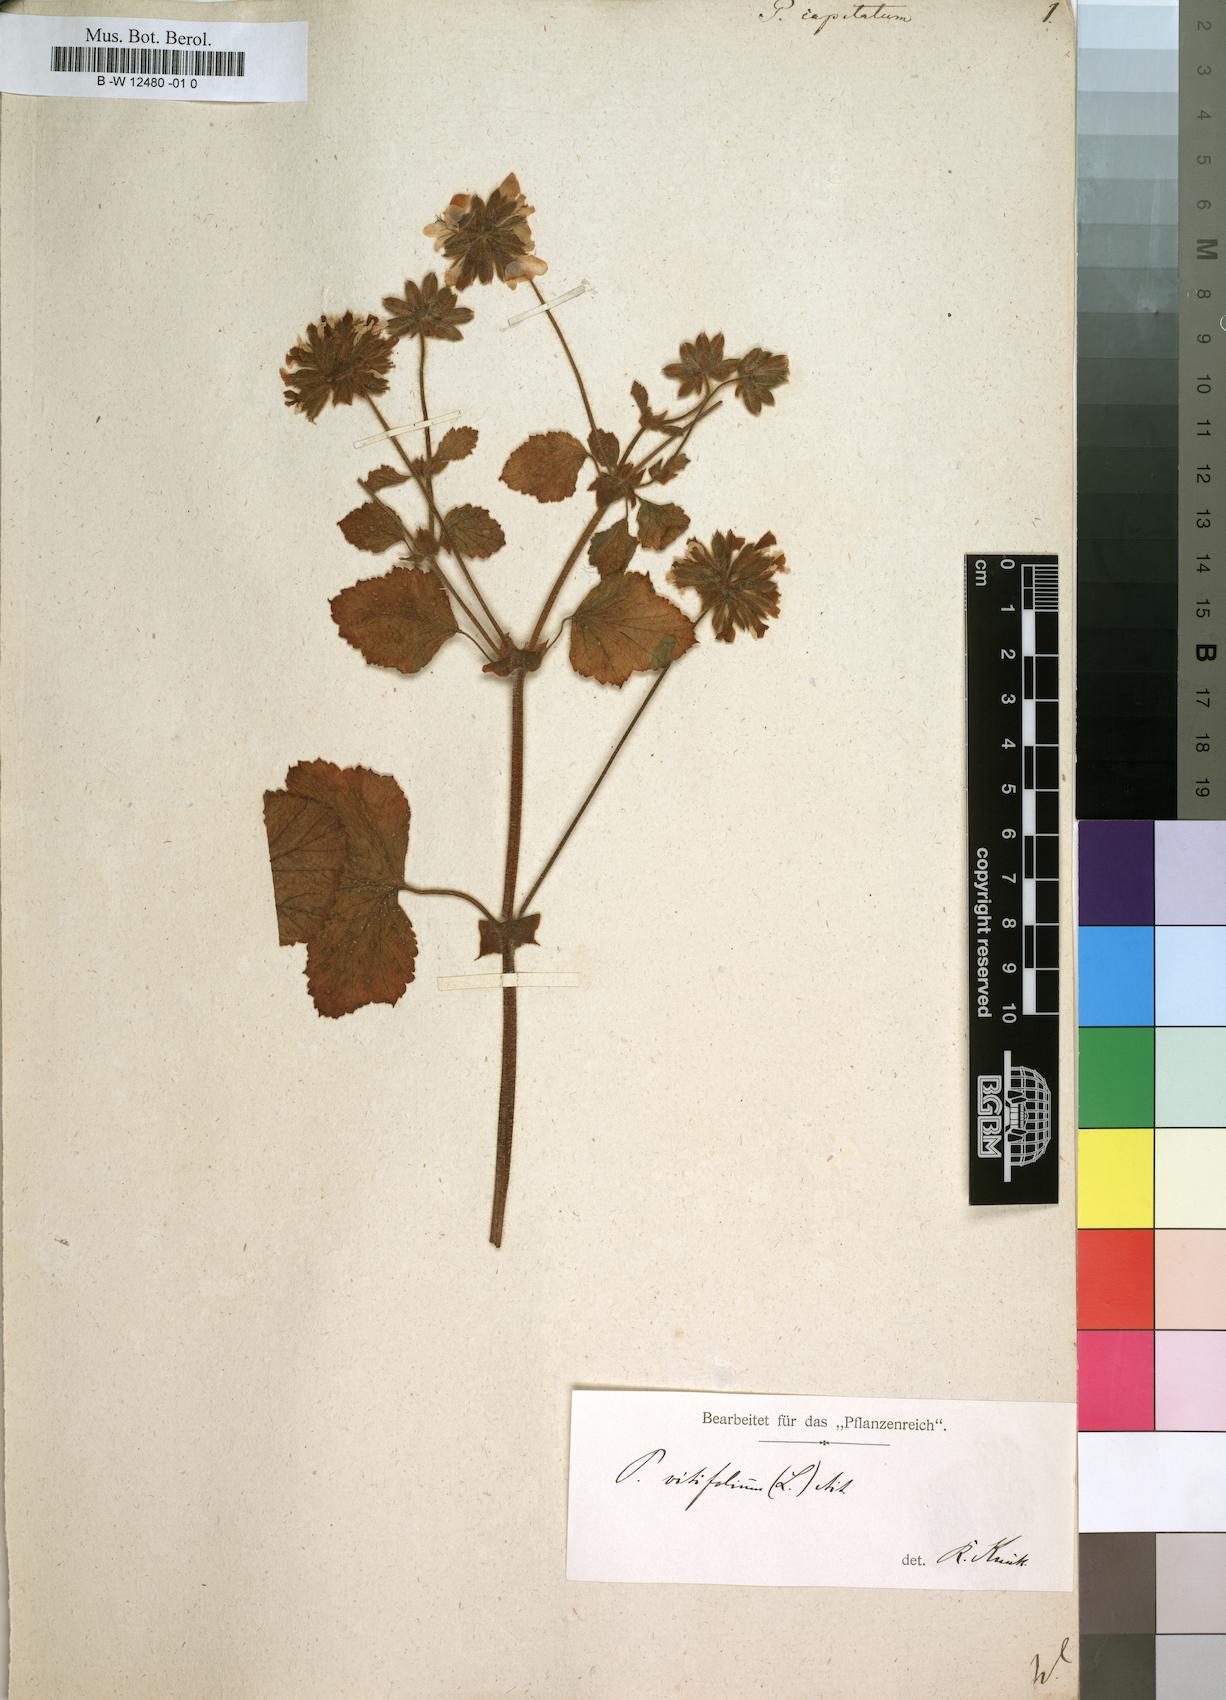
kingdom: Plantae
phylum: Tracheophyta
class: Magnoliopsida
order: Geraniales
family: Geraniaceae
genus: Pelargonium
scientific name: Pelargonium capitatum
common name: Rose scented geranium
